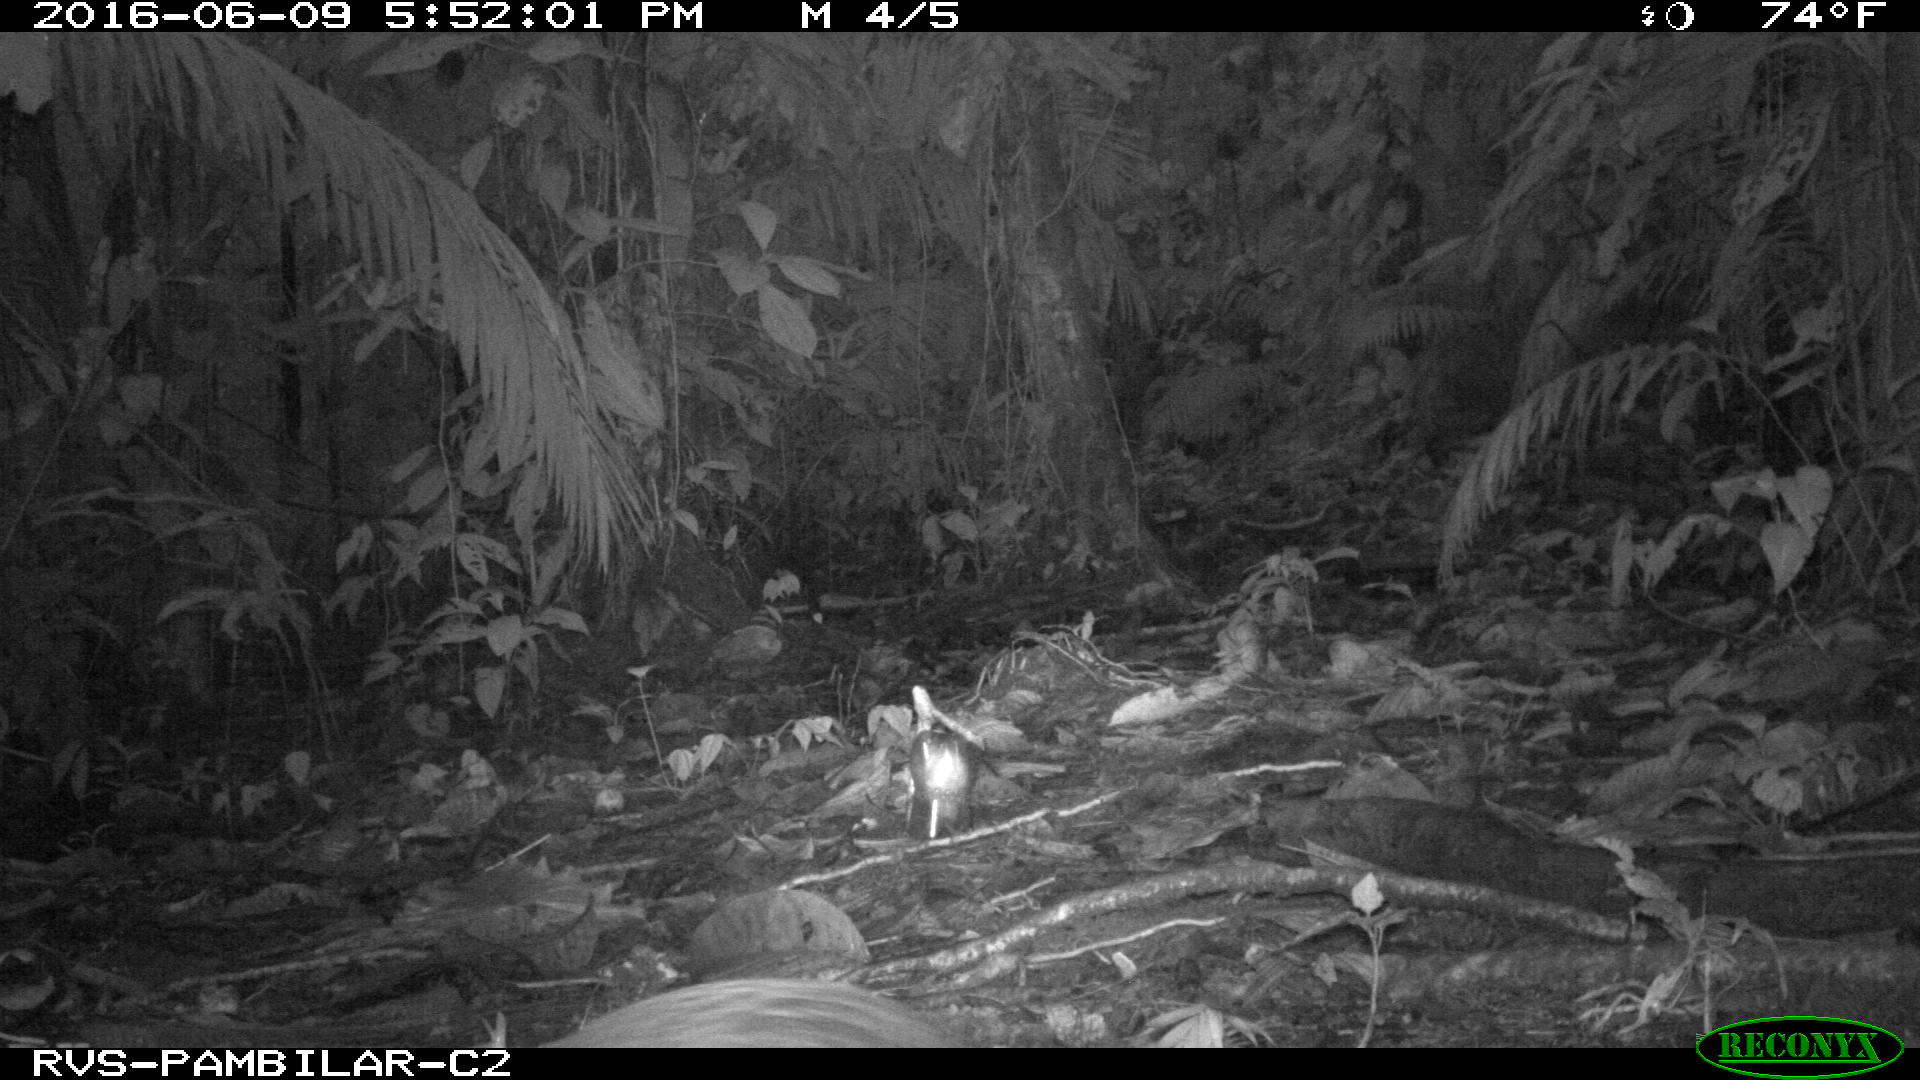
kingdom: Animalia
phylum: Chordata
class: Mammalia
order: Rodentia
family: Dasyproctidae
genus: Dasyprocta
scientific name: Dasyprocta punctata
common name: Central american agouti
